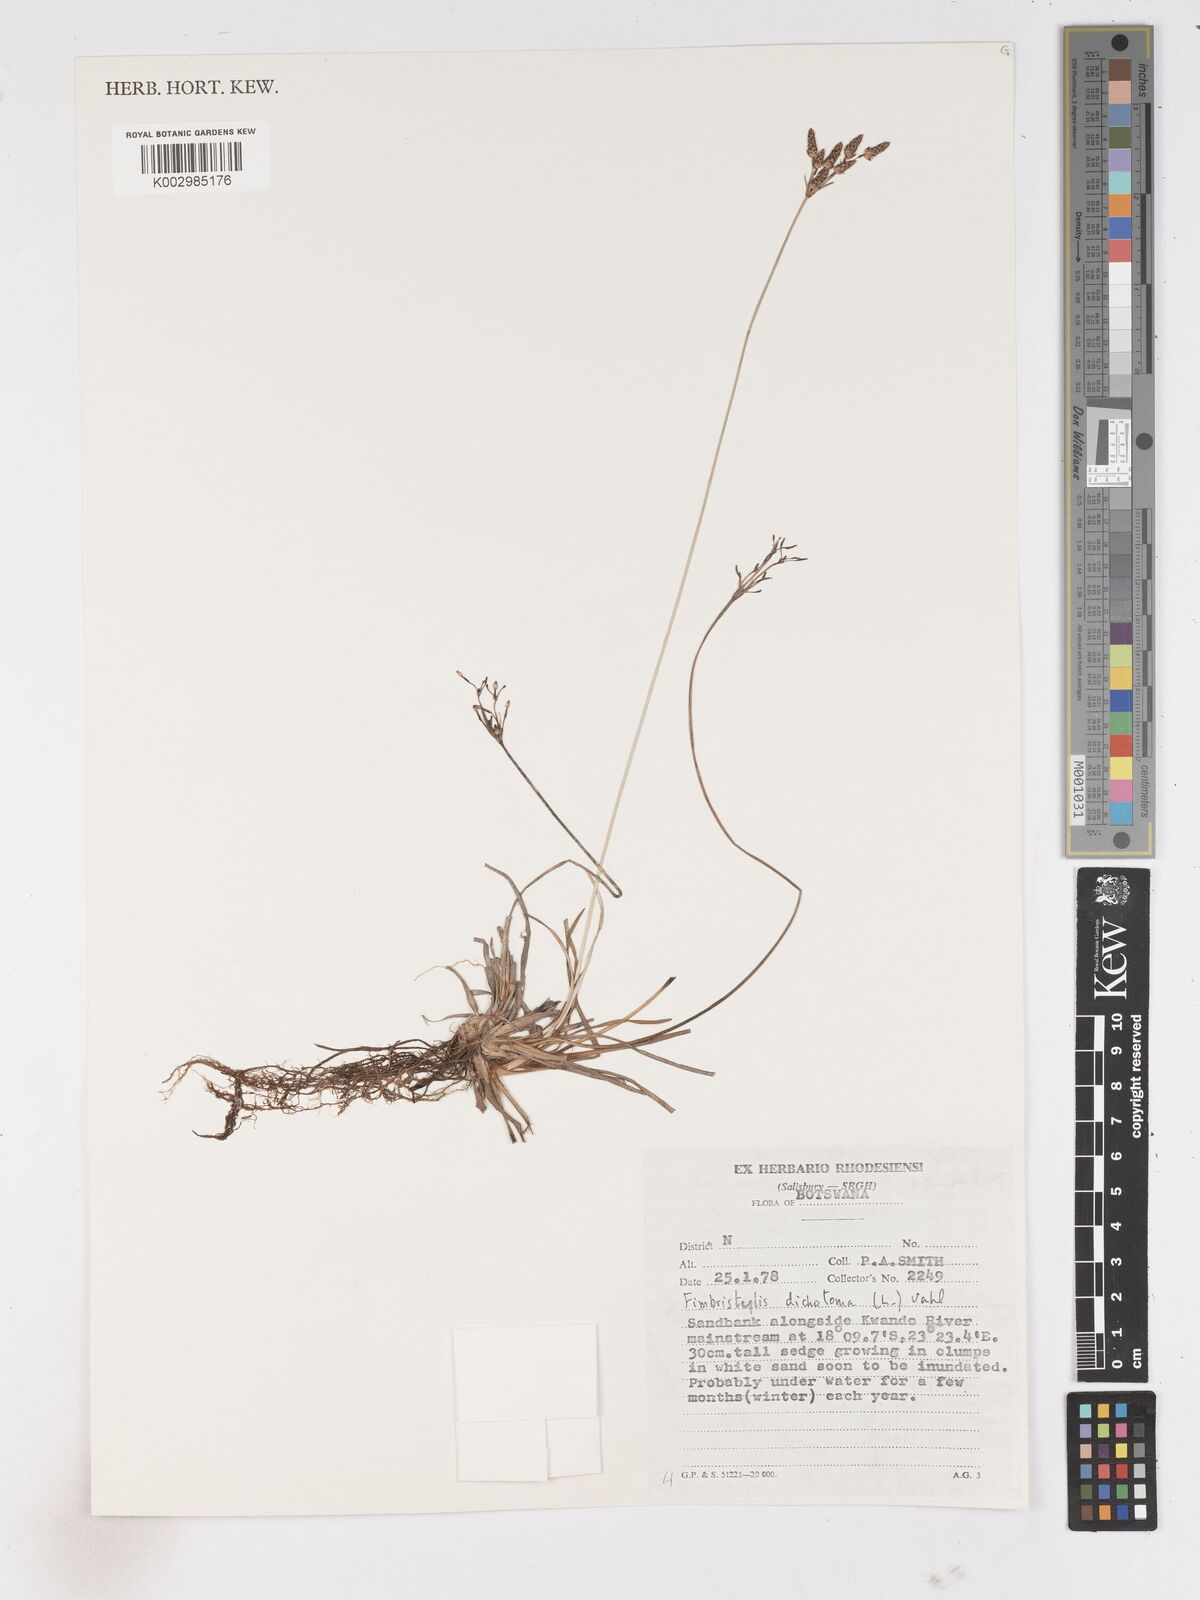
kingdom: Plantae
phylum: Tracheophyta
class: Liliopsida
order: Poales
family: Cyperaceae
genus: Fimbristylis
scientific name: Fimbristylis dichotoma
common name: Forked fimbry
